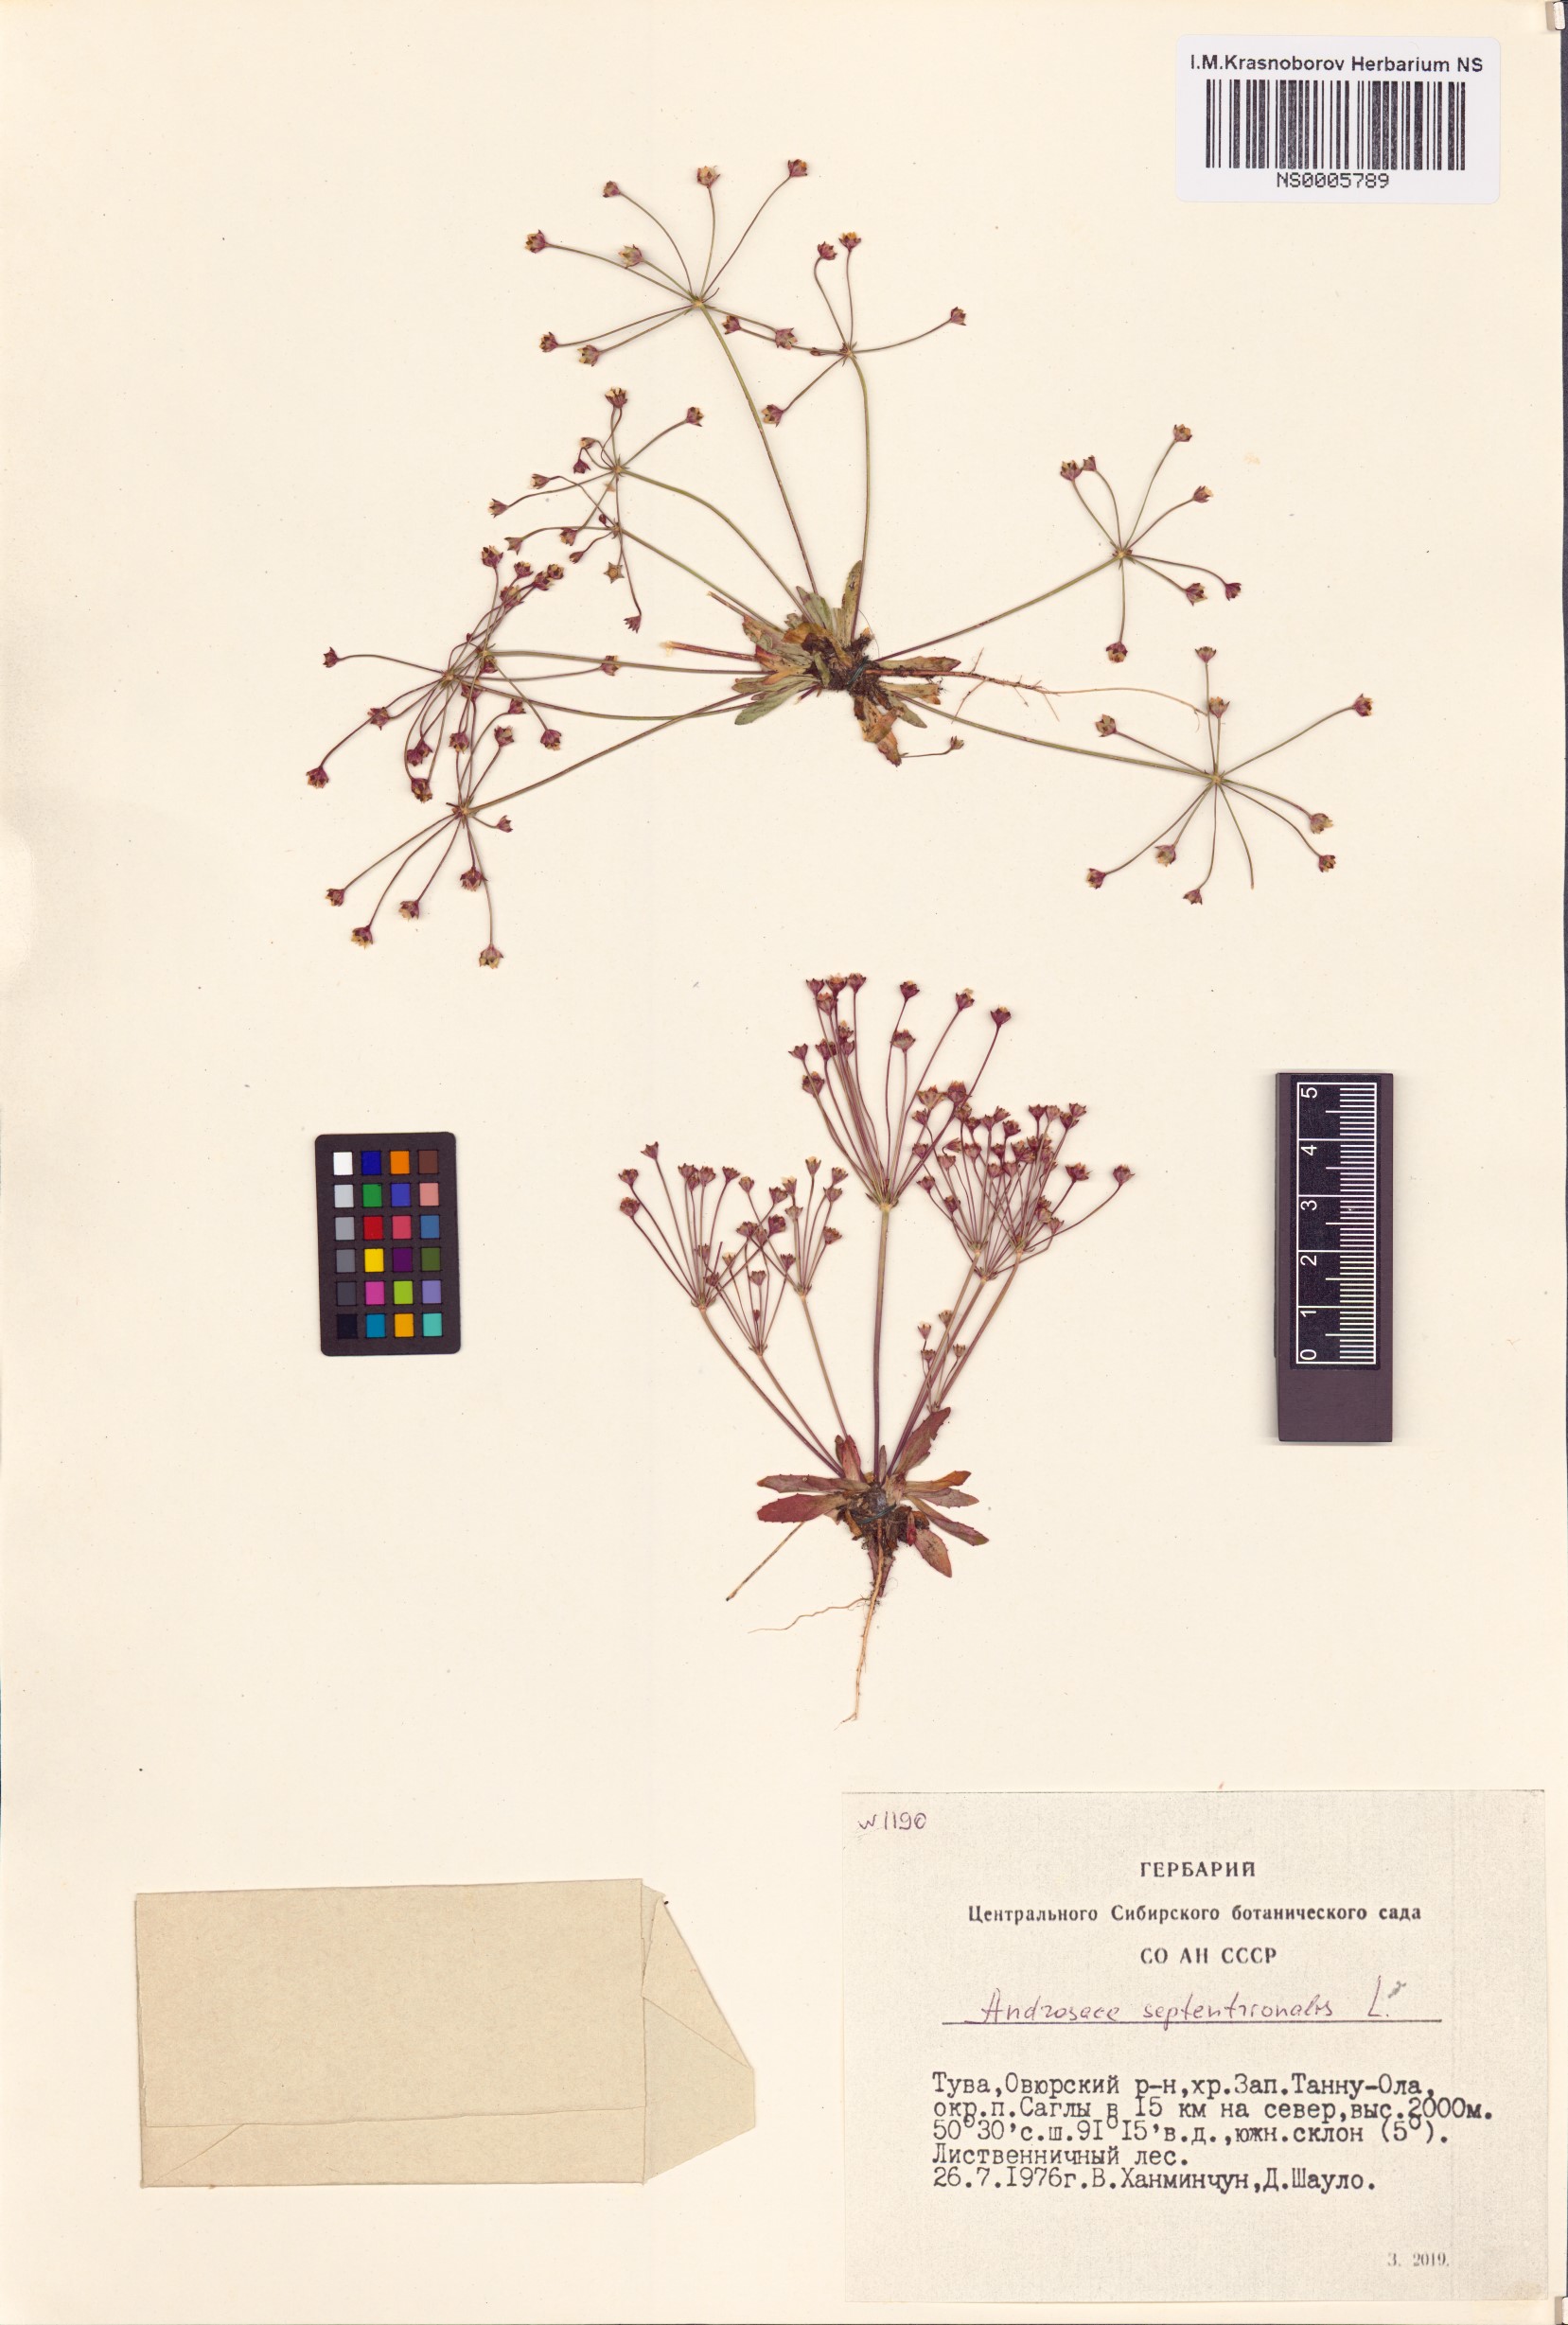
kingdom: Plantae
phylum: Tracheophyta
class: Magnoliopsida
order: Ericales
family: Primulaceae
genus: Androsace
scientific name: Androsace septentrionalis
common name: Hairy northern fairy-candelabra
